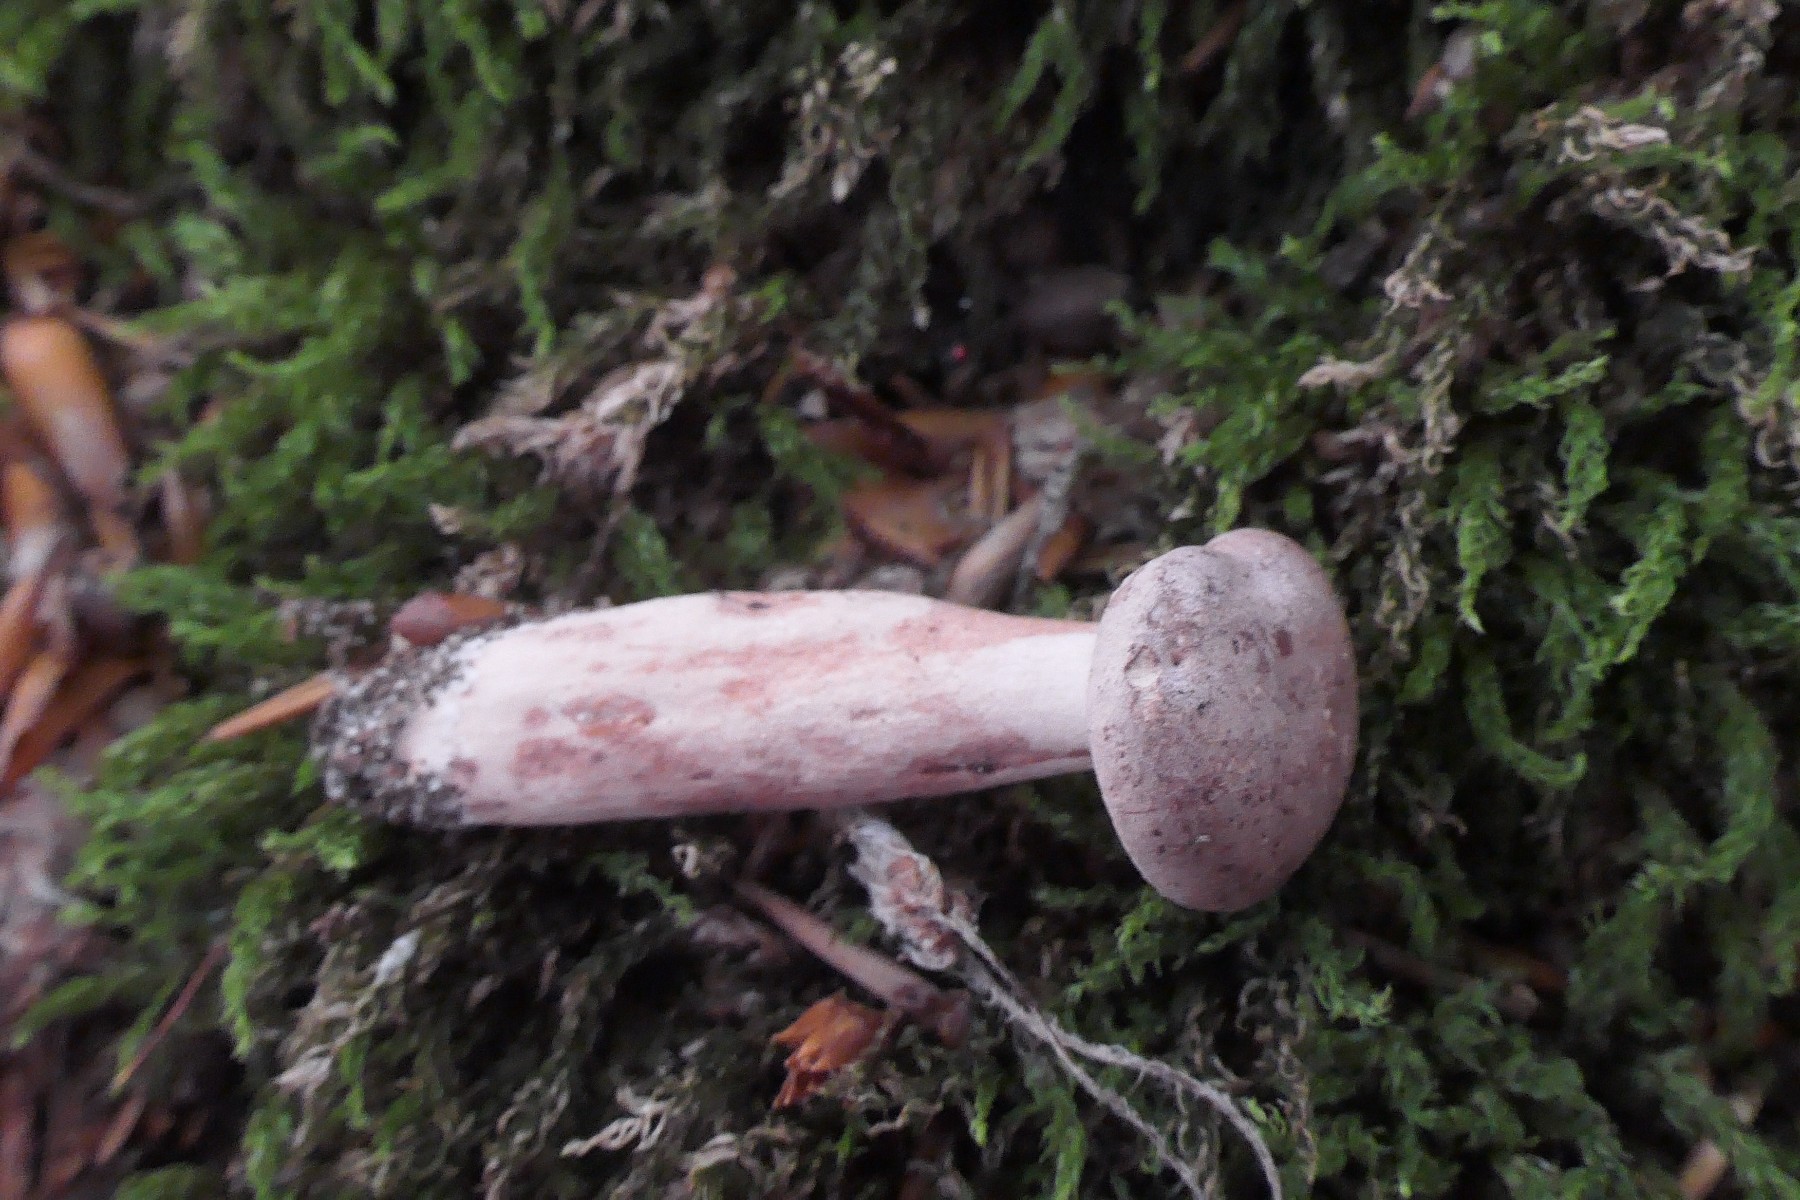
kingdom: Fungi
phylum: Basidiomycota
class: Agaricomycetes
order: Russulales
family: Russulaceae
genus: Lactarius
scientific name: Lactarius quietus
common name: ege-mælkehat
